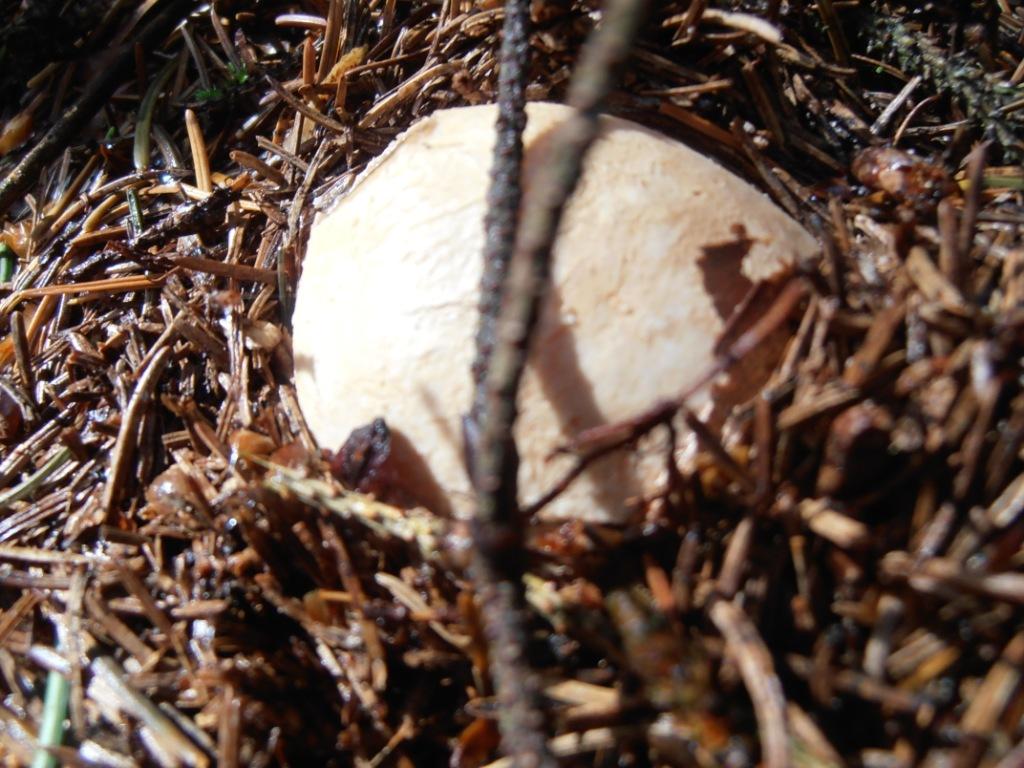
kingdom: Fungi
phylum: Basidiomycota
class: Agaricomycetes
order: Phallales
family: Phallaceae
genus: Phallus
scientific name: Phallus impudicus
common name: almindelig stinksvamp
